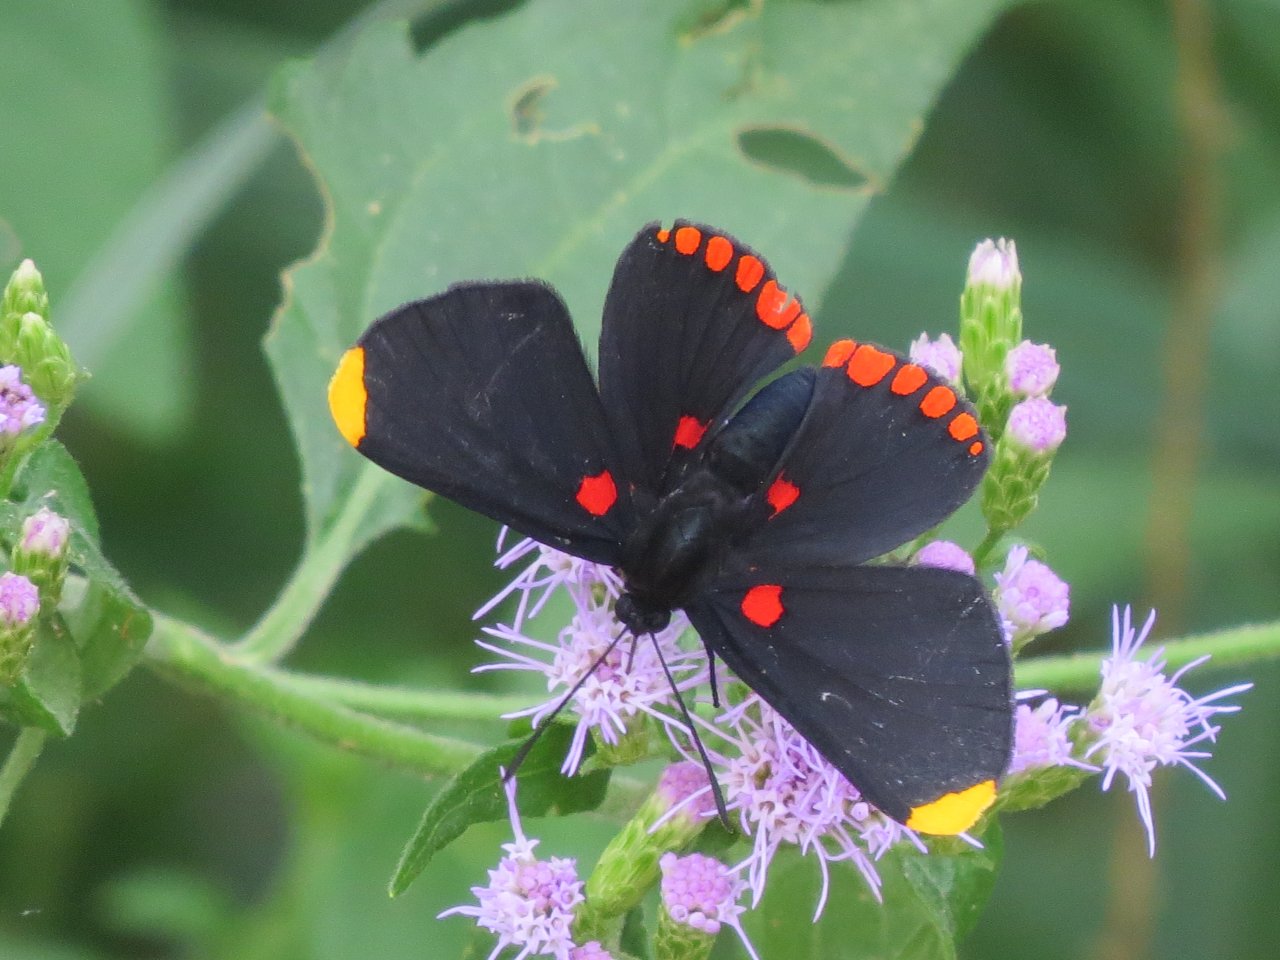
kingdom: Animalia
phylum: Arthropoda
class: Insecta
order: Lepidoptera
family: Lycaenidae
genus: Melanis
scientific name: Melanis pixe
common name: Red-bordered Pixie
